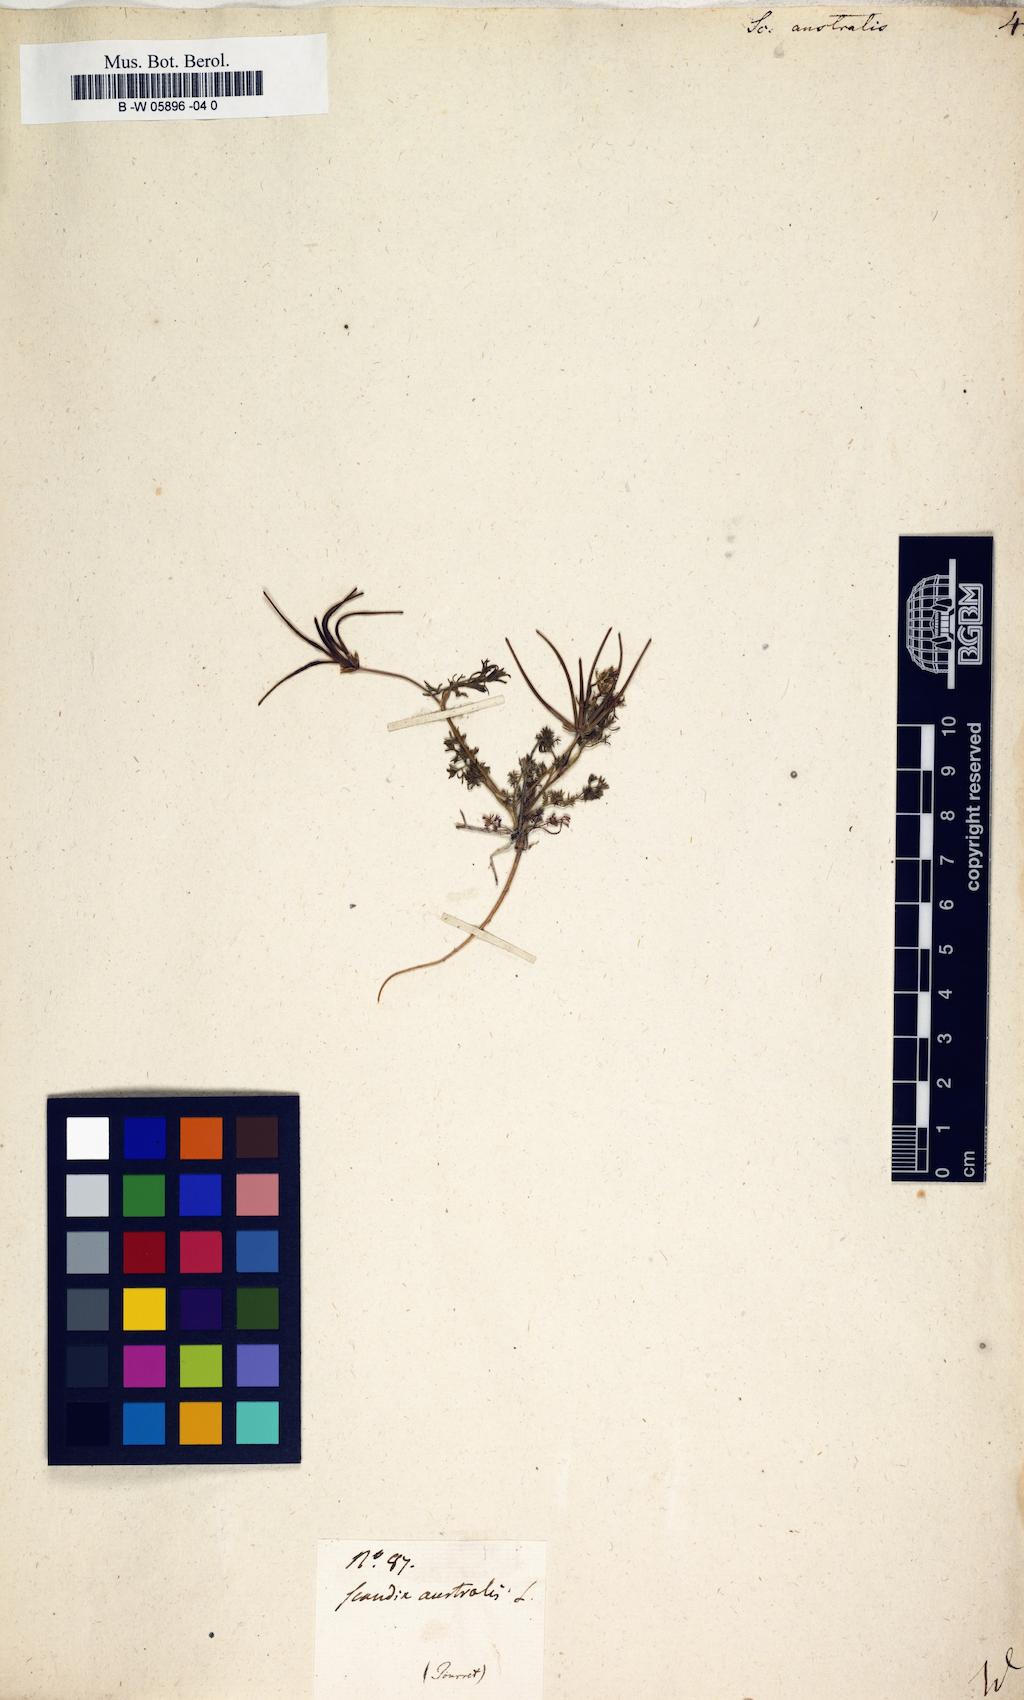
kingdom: Plantae
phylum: Tracheophyta
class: Magnoliopsida
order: Apiales
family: Apiaceae
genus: Scandix
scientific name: Scandix australis
